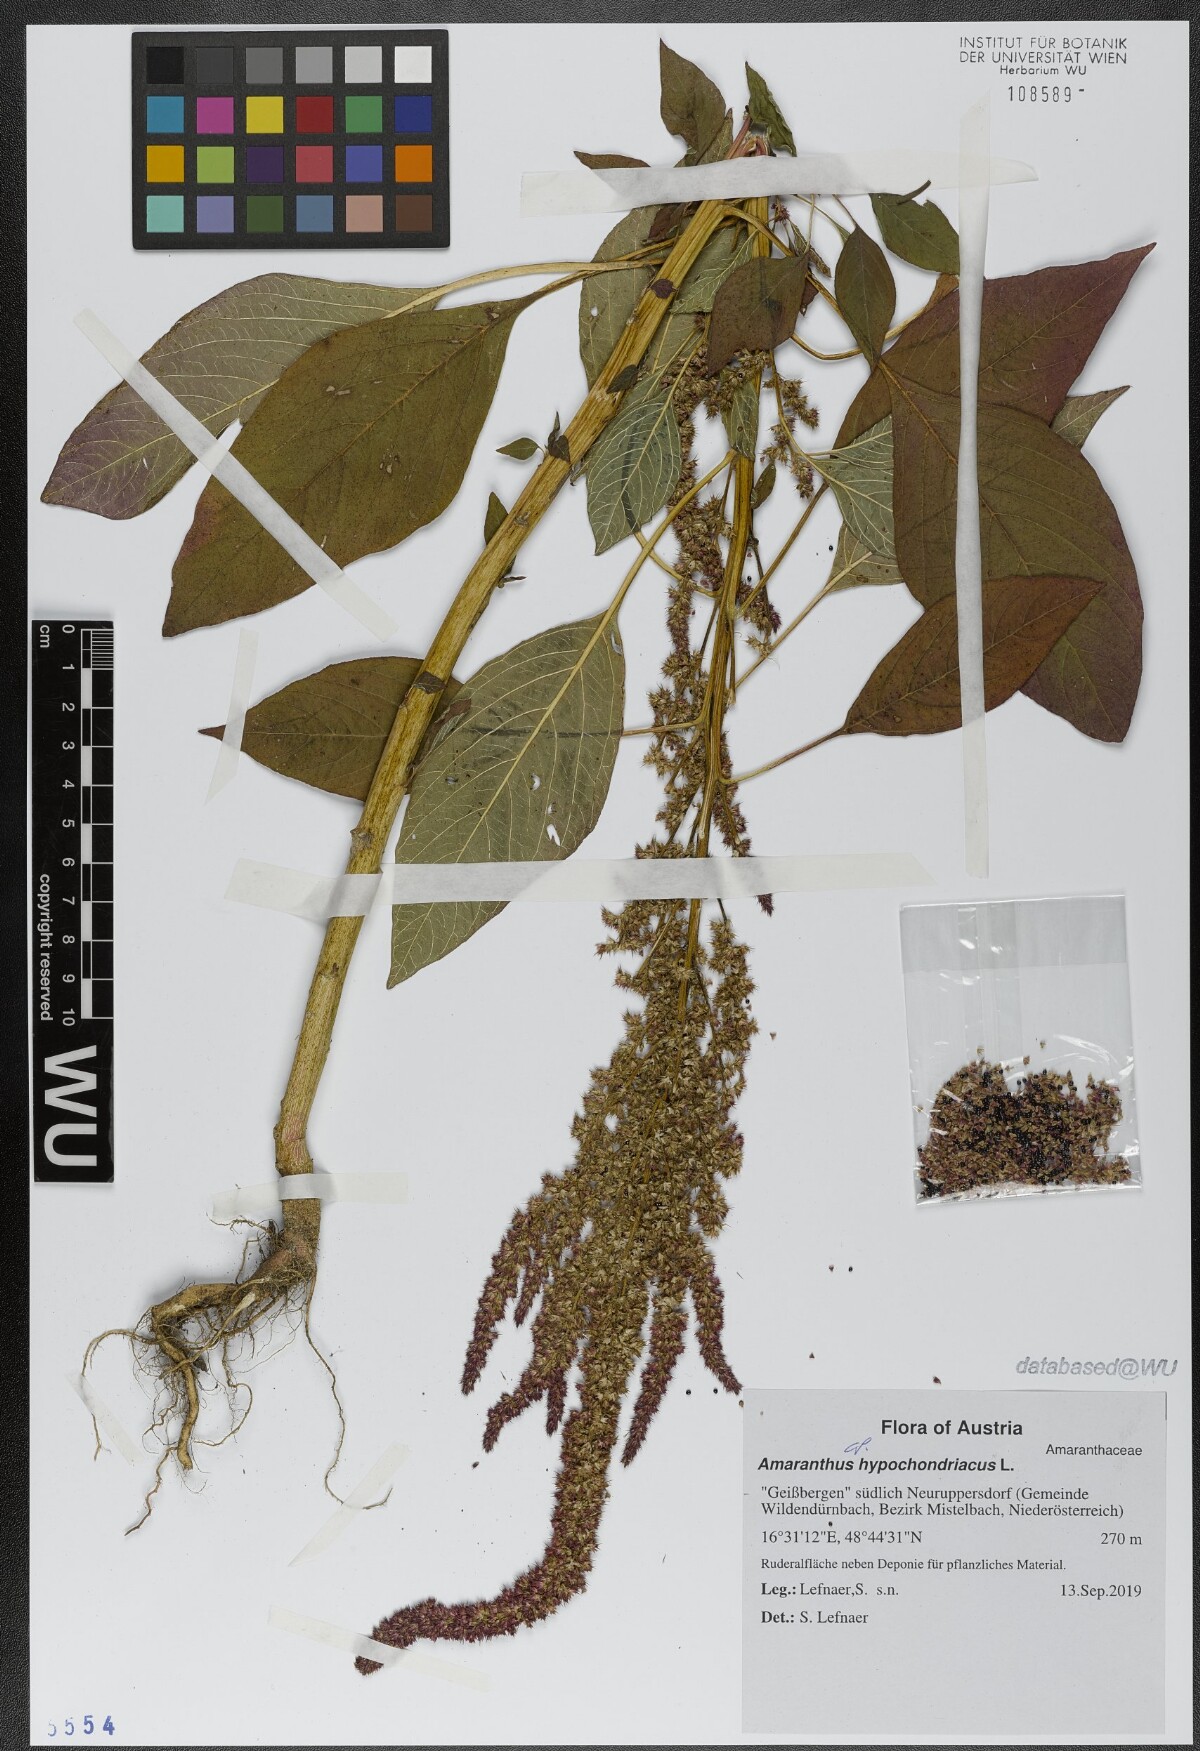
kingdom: Plantae
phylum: Tracheophyta
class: Magnoliopsida
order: Caryophyllales
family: Amaranthaceae
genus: Amaranthus
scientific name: Amaranthus hypochondriacus
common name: Prince's-feather
